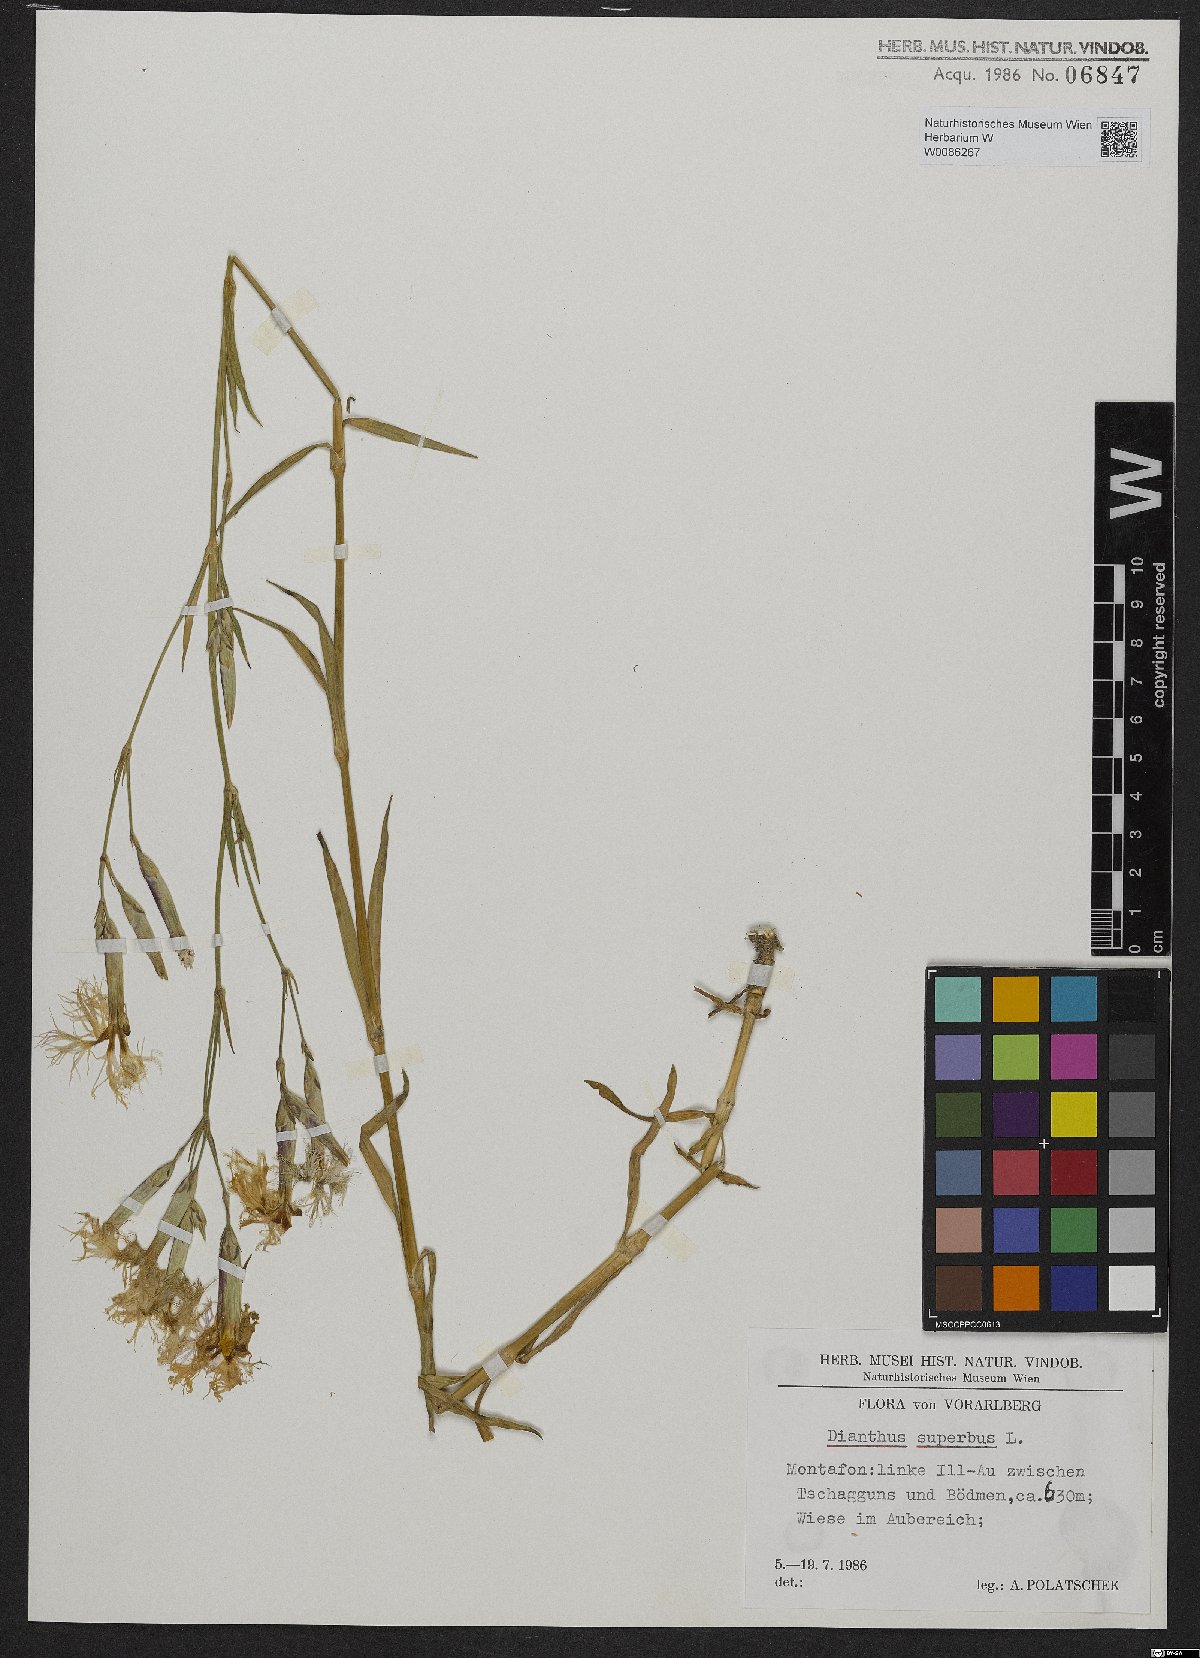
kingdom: Plantae
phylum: Tracheophyta
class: Magnoliopsida
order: Caryophyllales
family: Caryophyllaceae
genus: Dianthus
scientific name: Dianthus superbus
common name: Fringed pink
